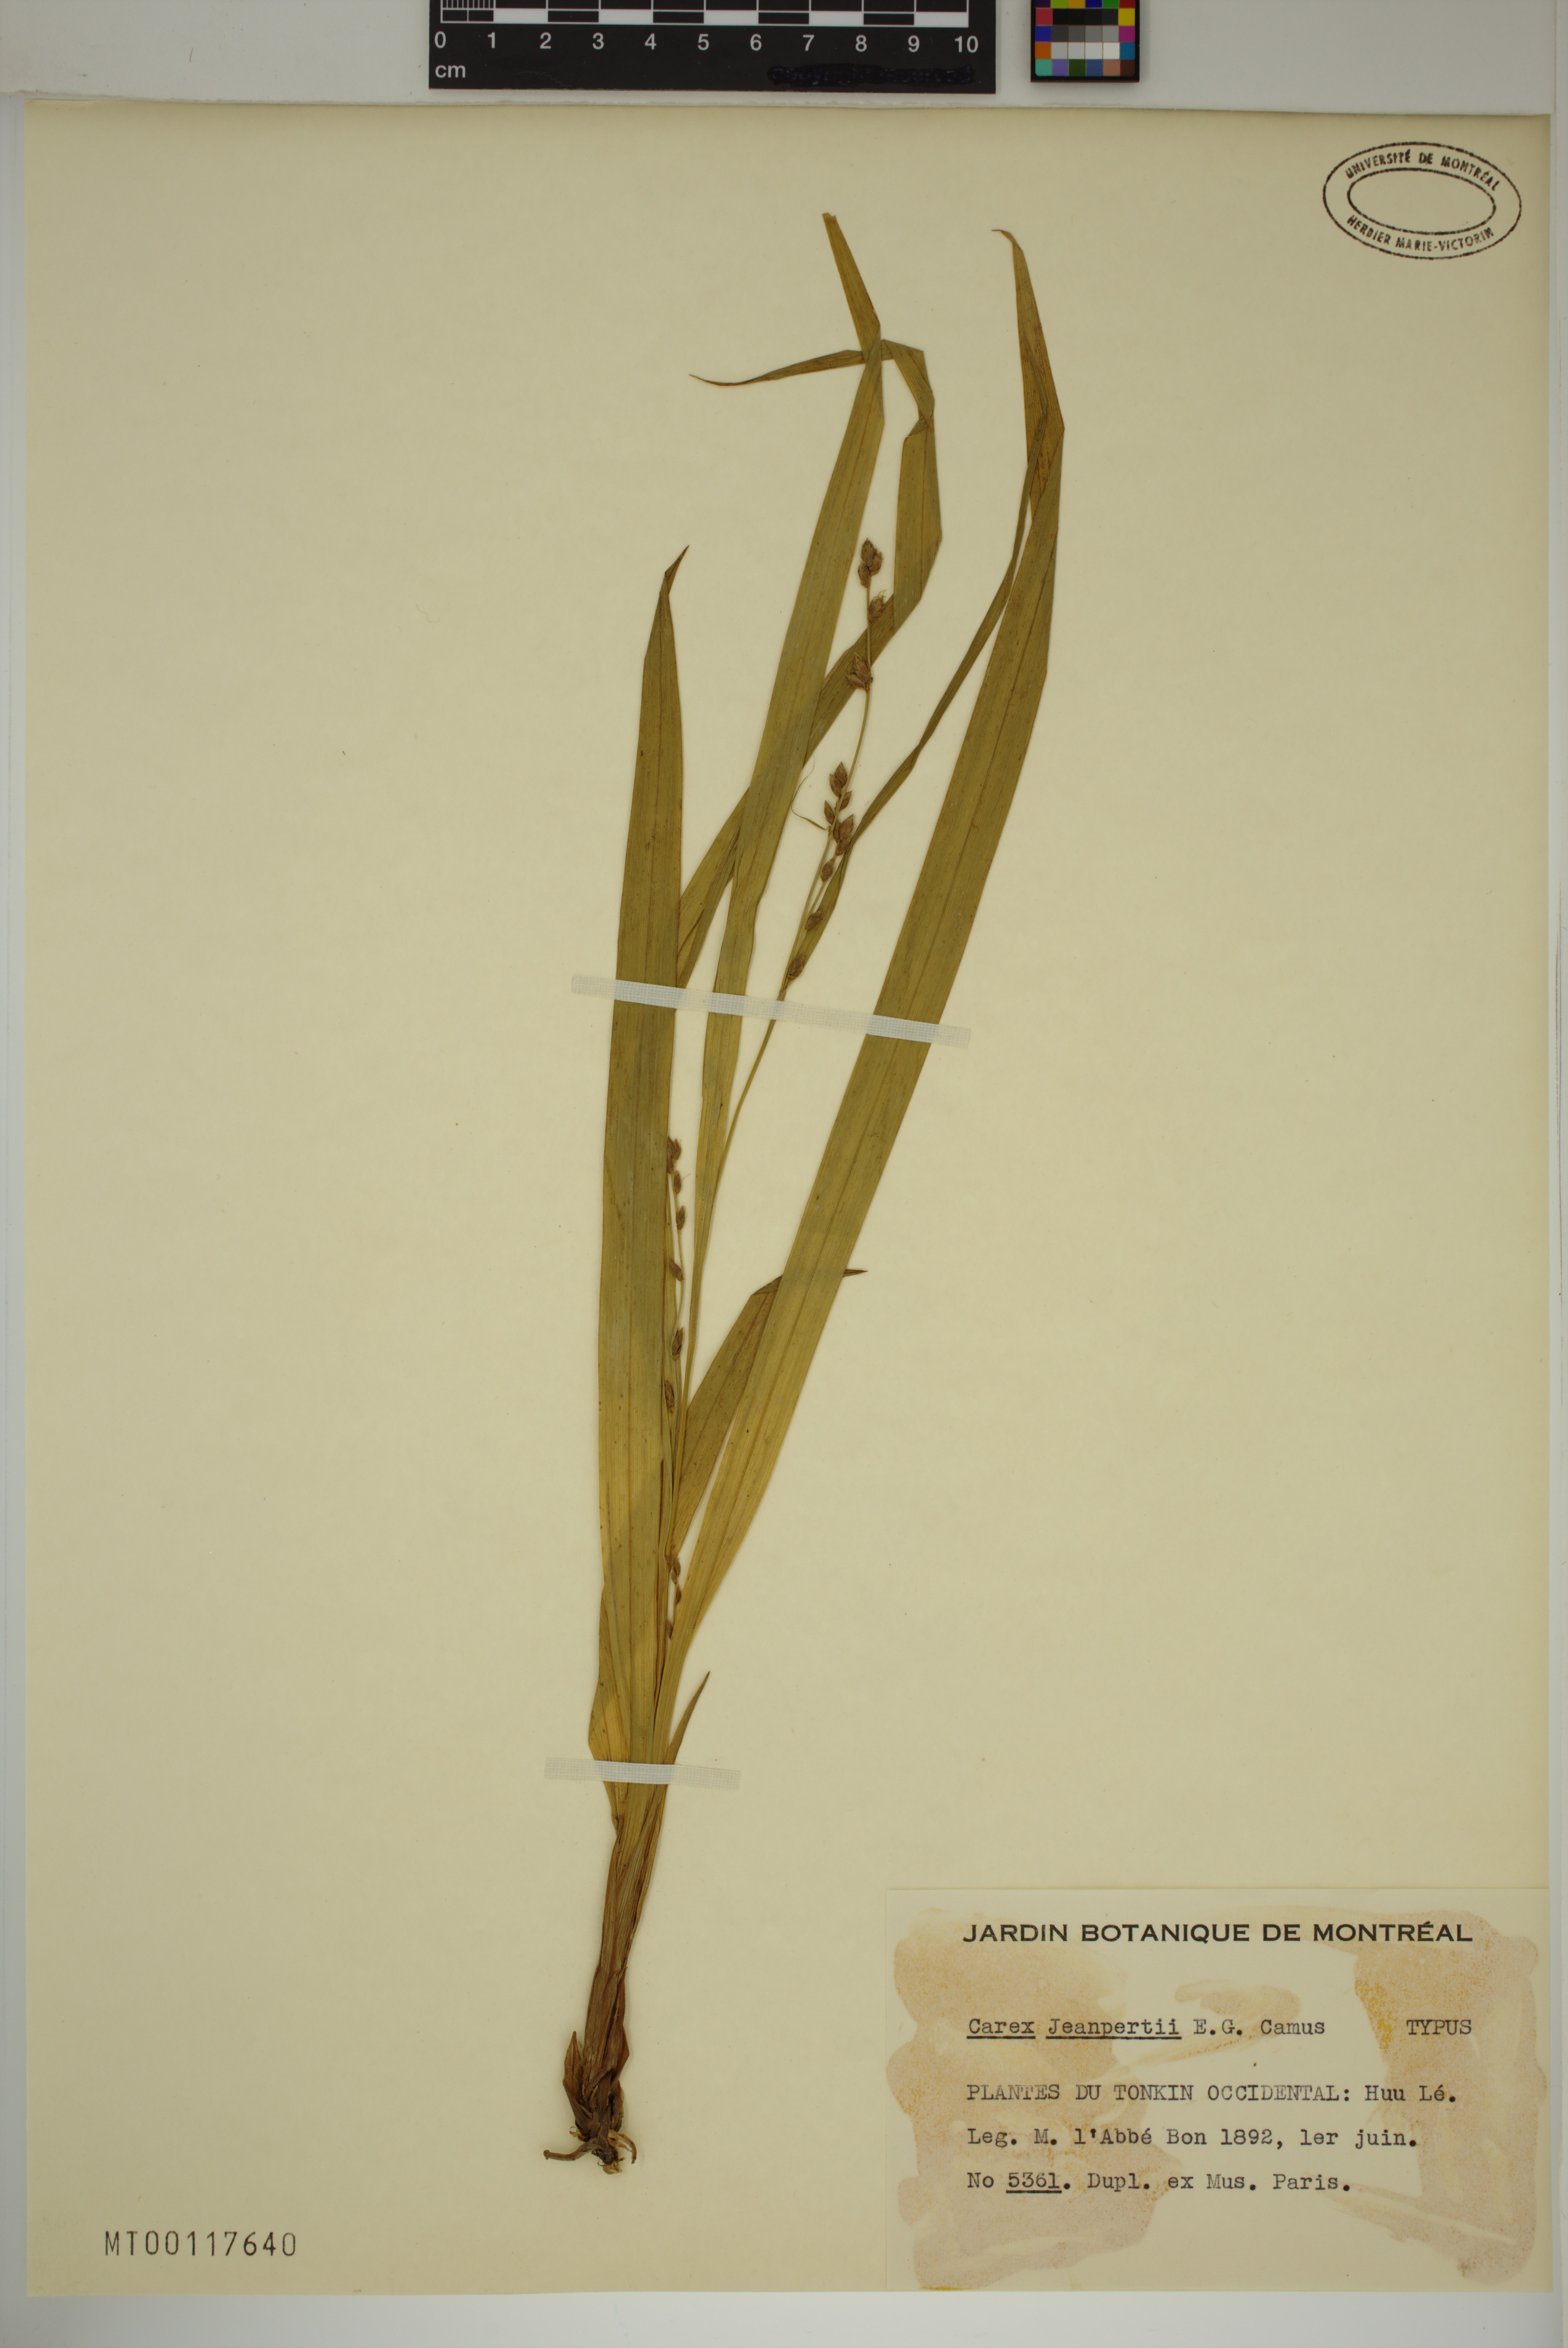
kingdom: Plantae
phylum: Tracheophyta
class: Liliopsida
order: Poales
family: Cyperaceae
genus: Carex
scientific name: Carex jeanpertii
